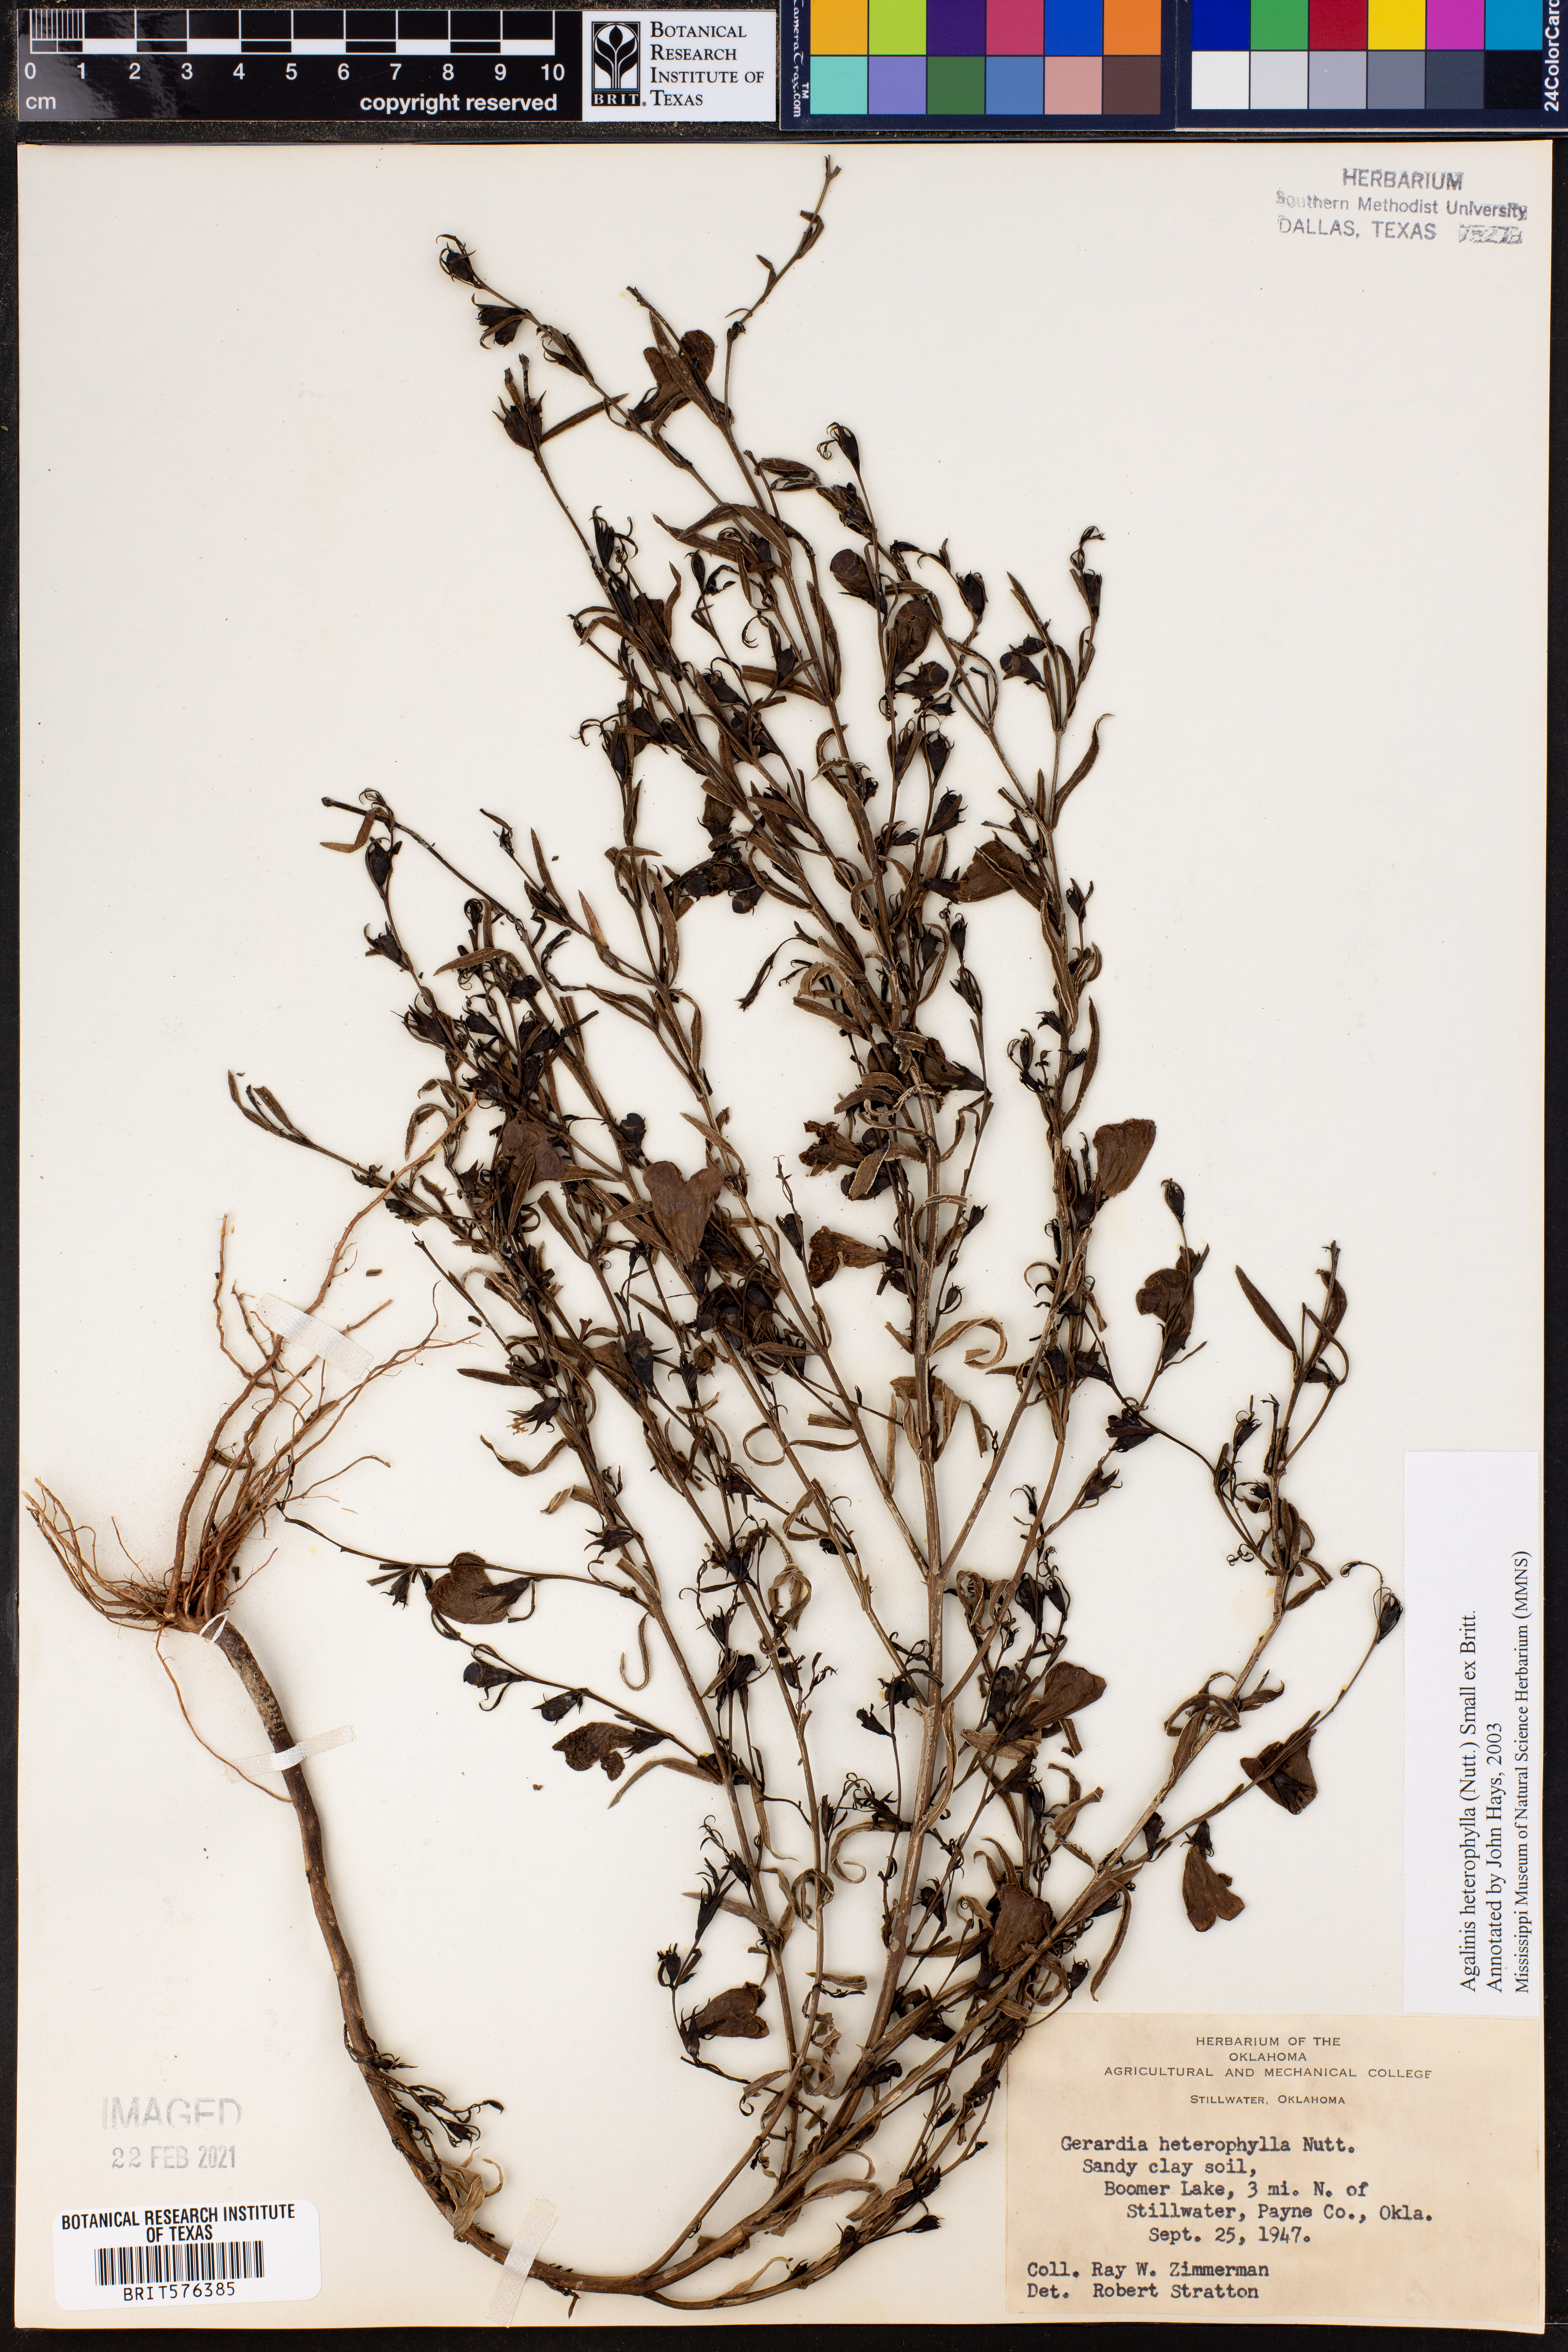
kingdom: Plantae
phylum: Tracheophyta
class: Magnoliopsida
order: Lamiales
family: Orobanchaceae
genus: Agalinis
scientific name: Agalinis heterophylla
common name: Prairie agalinis
